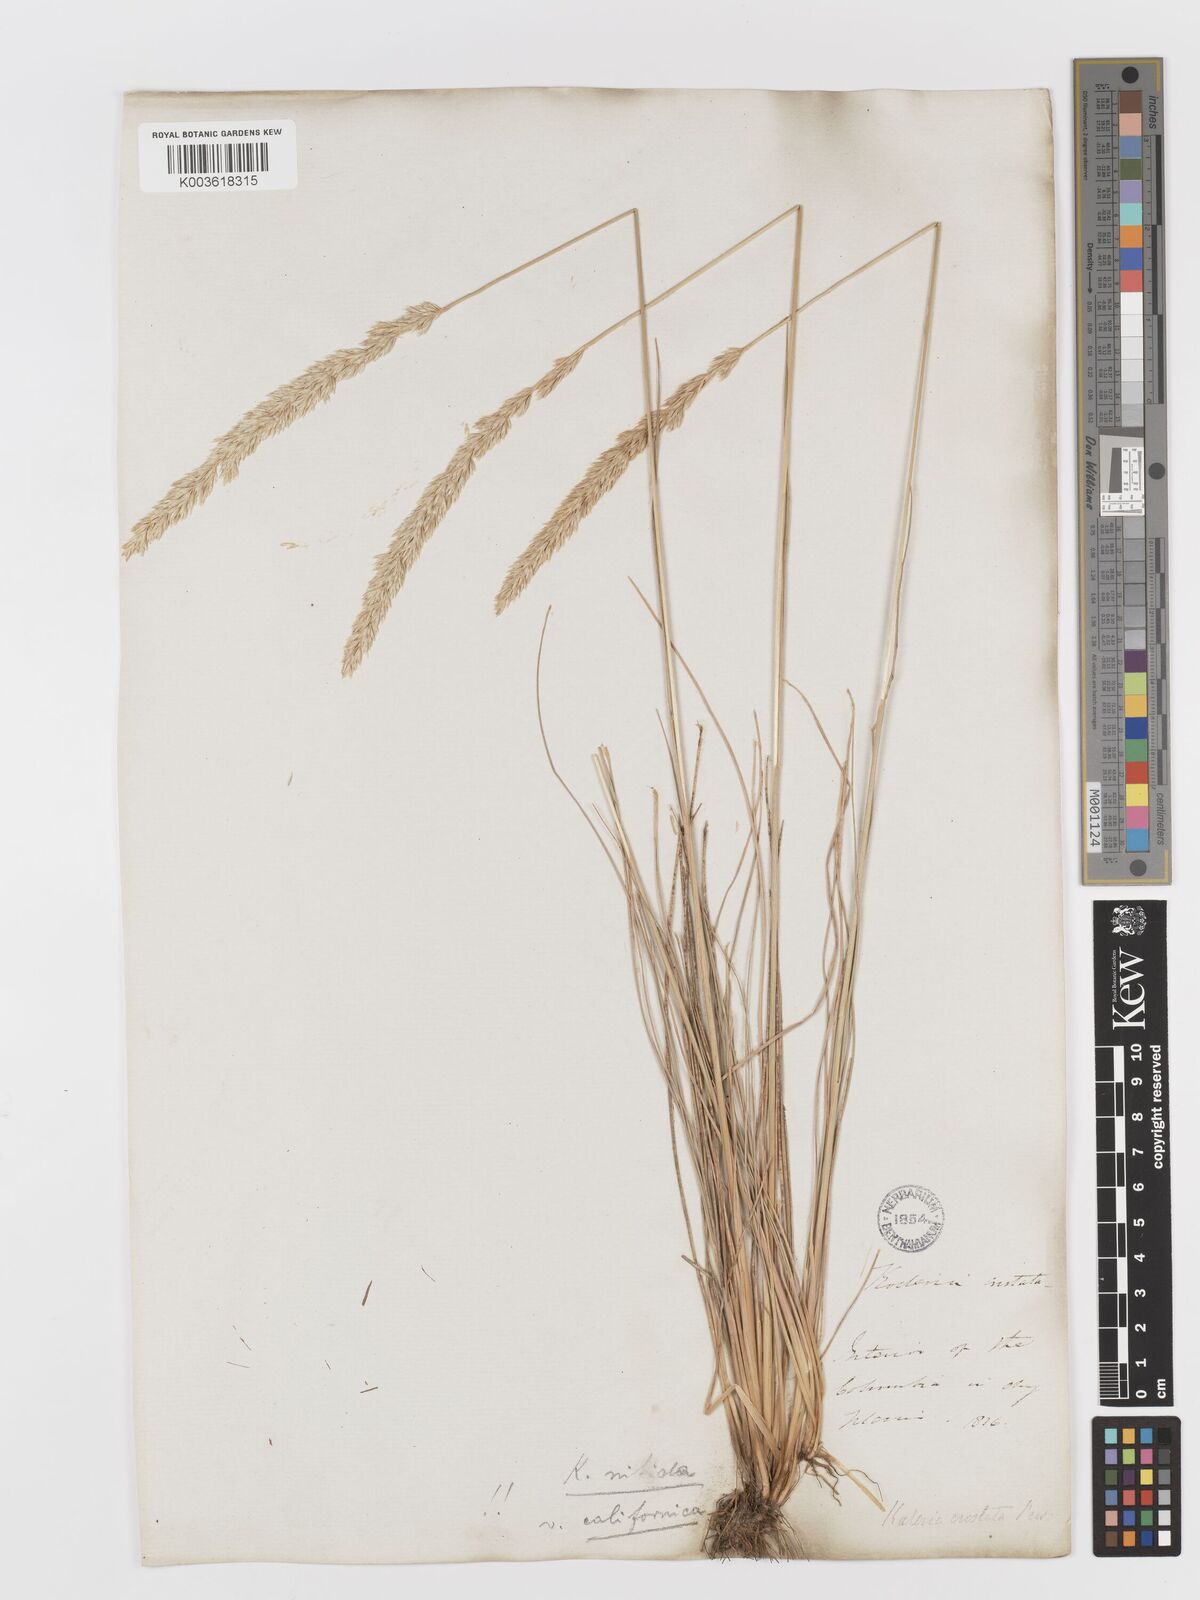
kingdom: Plantae
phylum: Tracheophyta
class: Liliopsida
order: Poales
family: Poaceae
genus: Koeleria
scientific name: Koeleria macrantha
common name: Crested hair-grass
